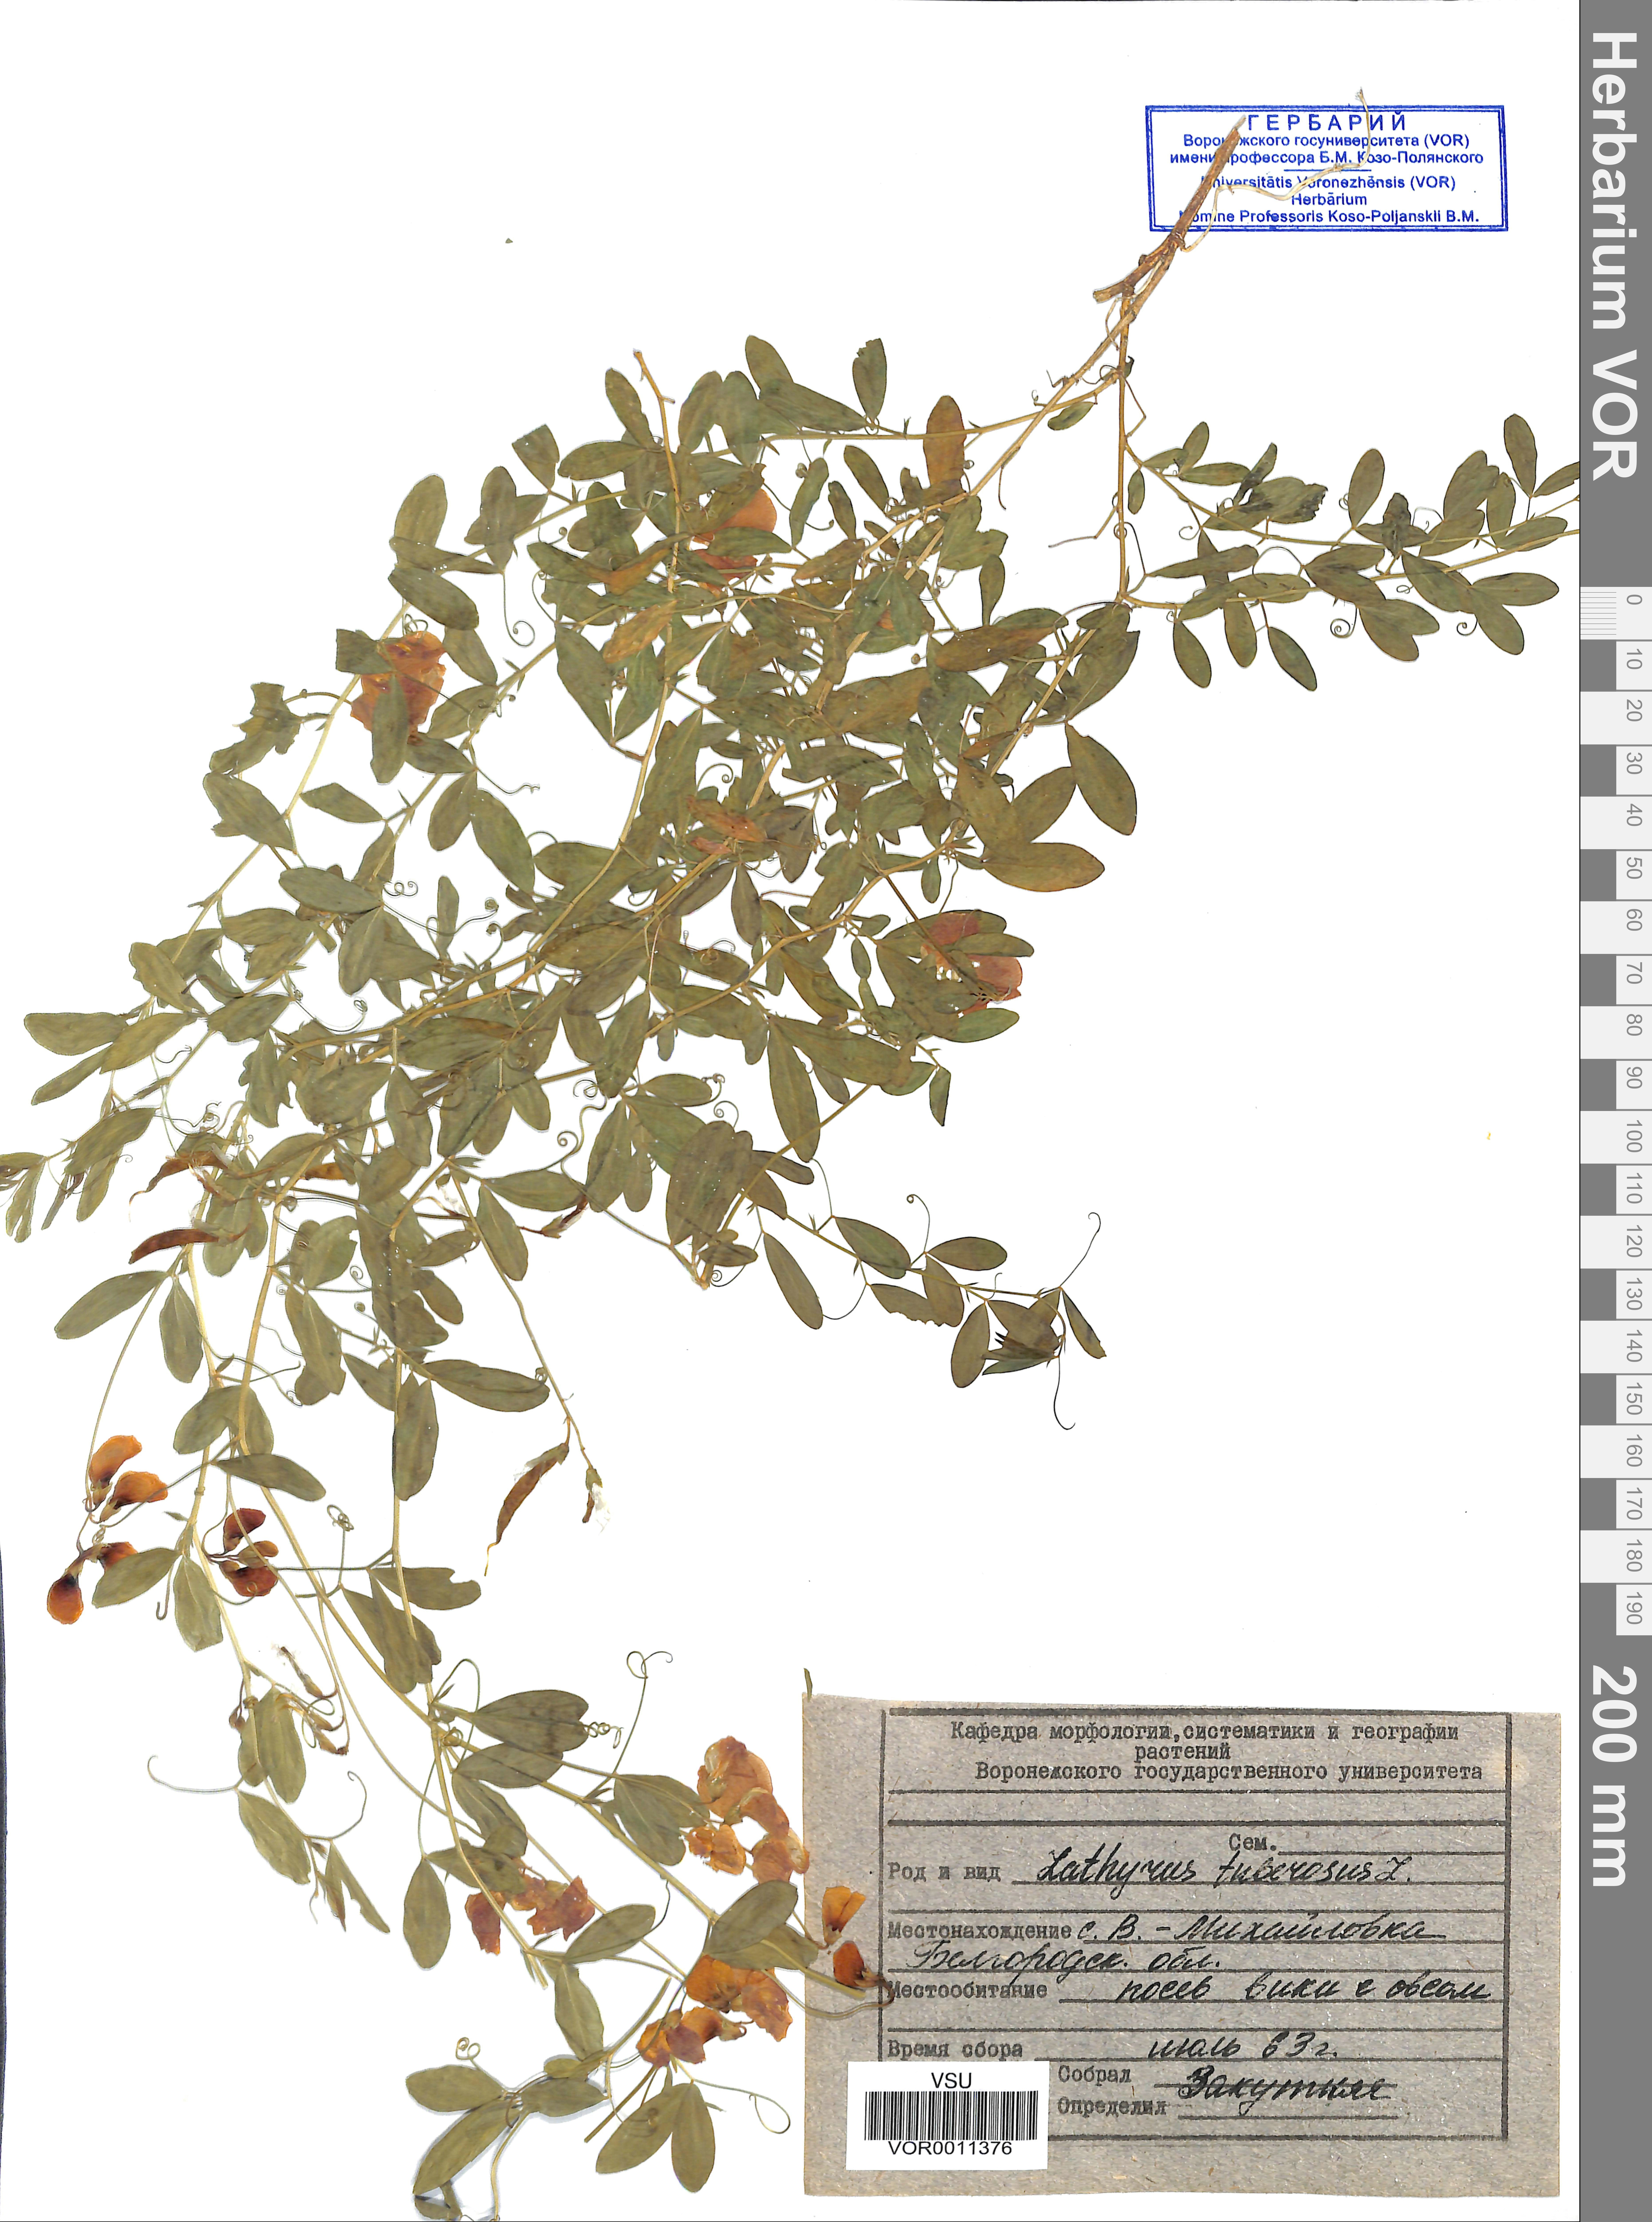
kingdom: Plantae
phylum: Tracheophyta
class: Magnoliopsida
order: Fabales
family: Fabaceae
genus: Lathyrus
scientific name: Lathyrus tuberosus
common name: Tuberous pea
